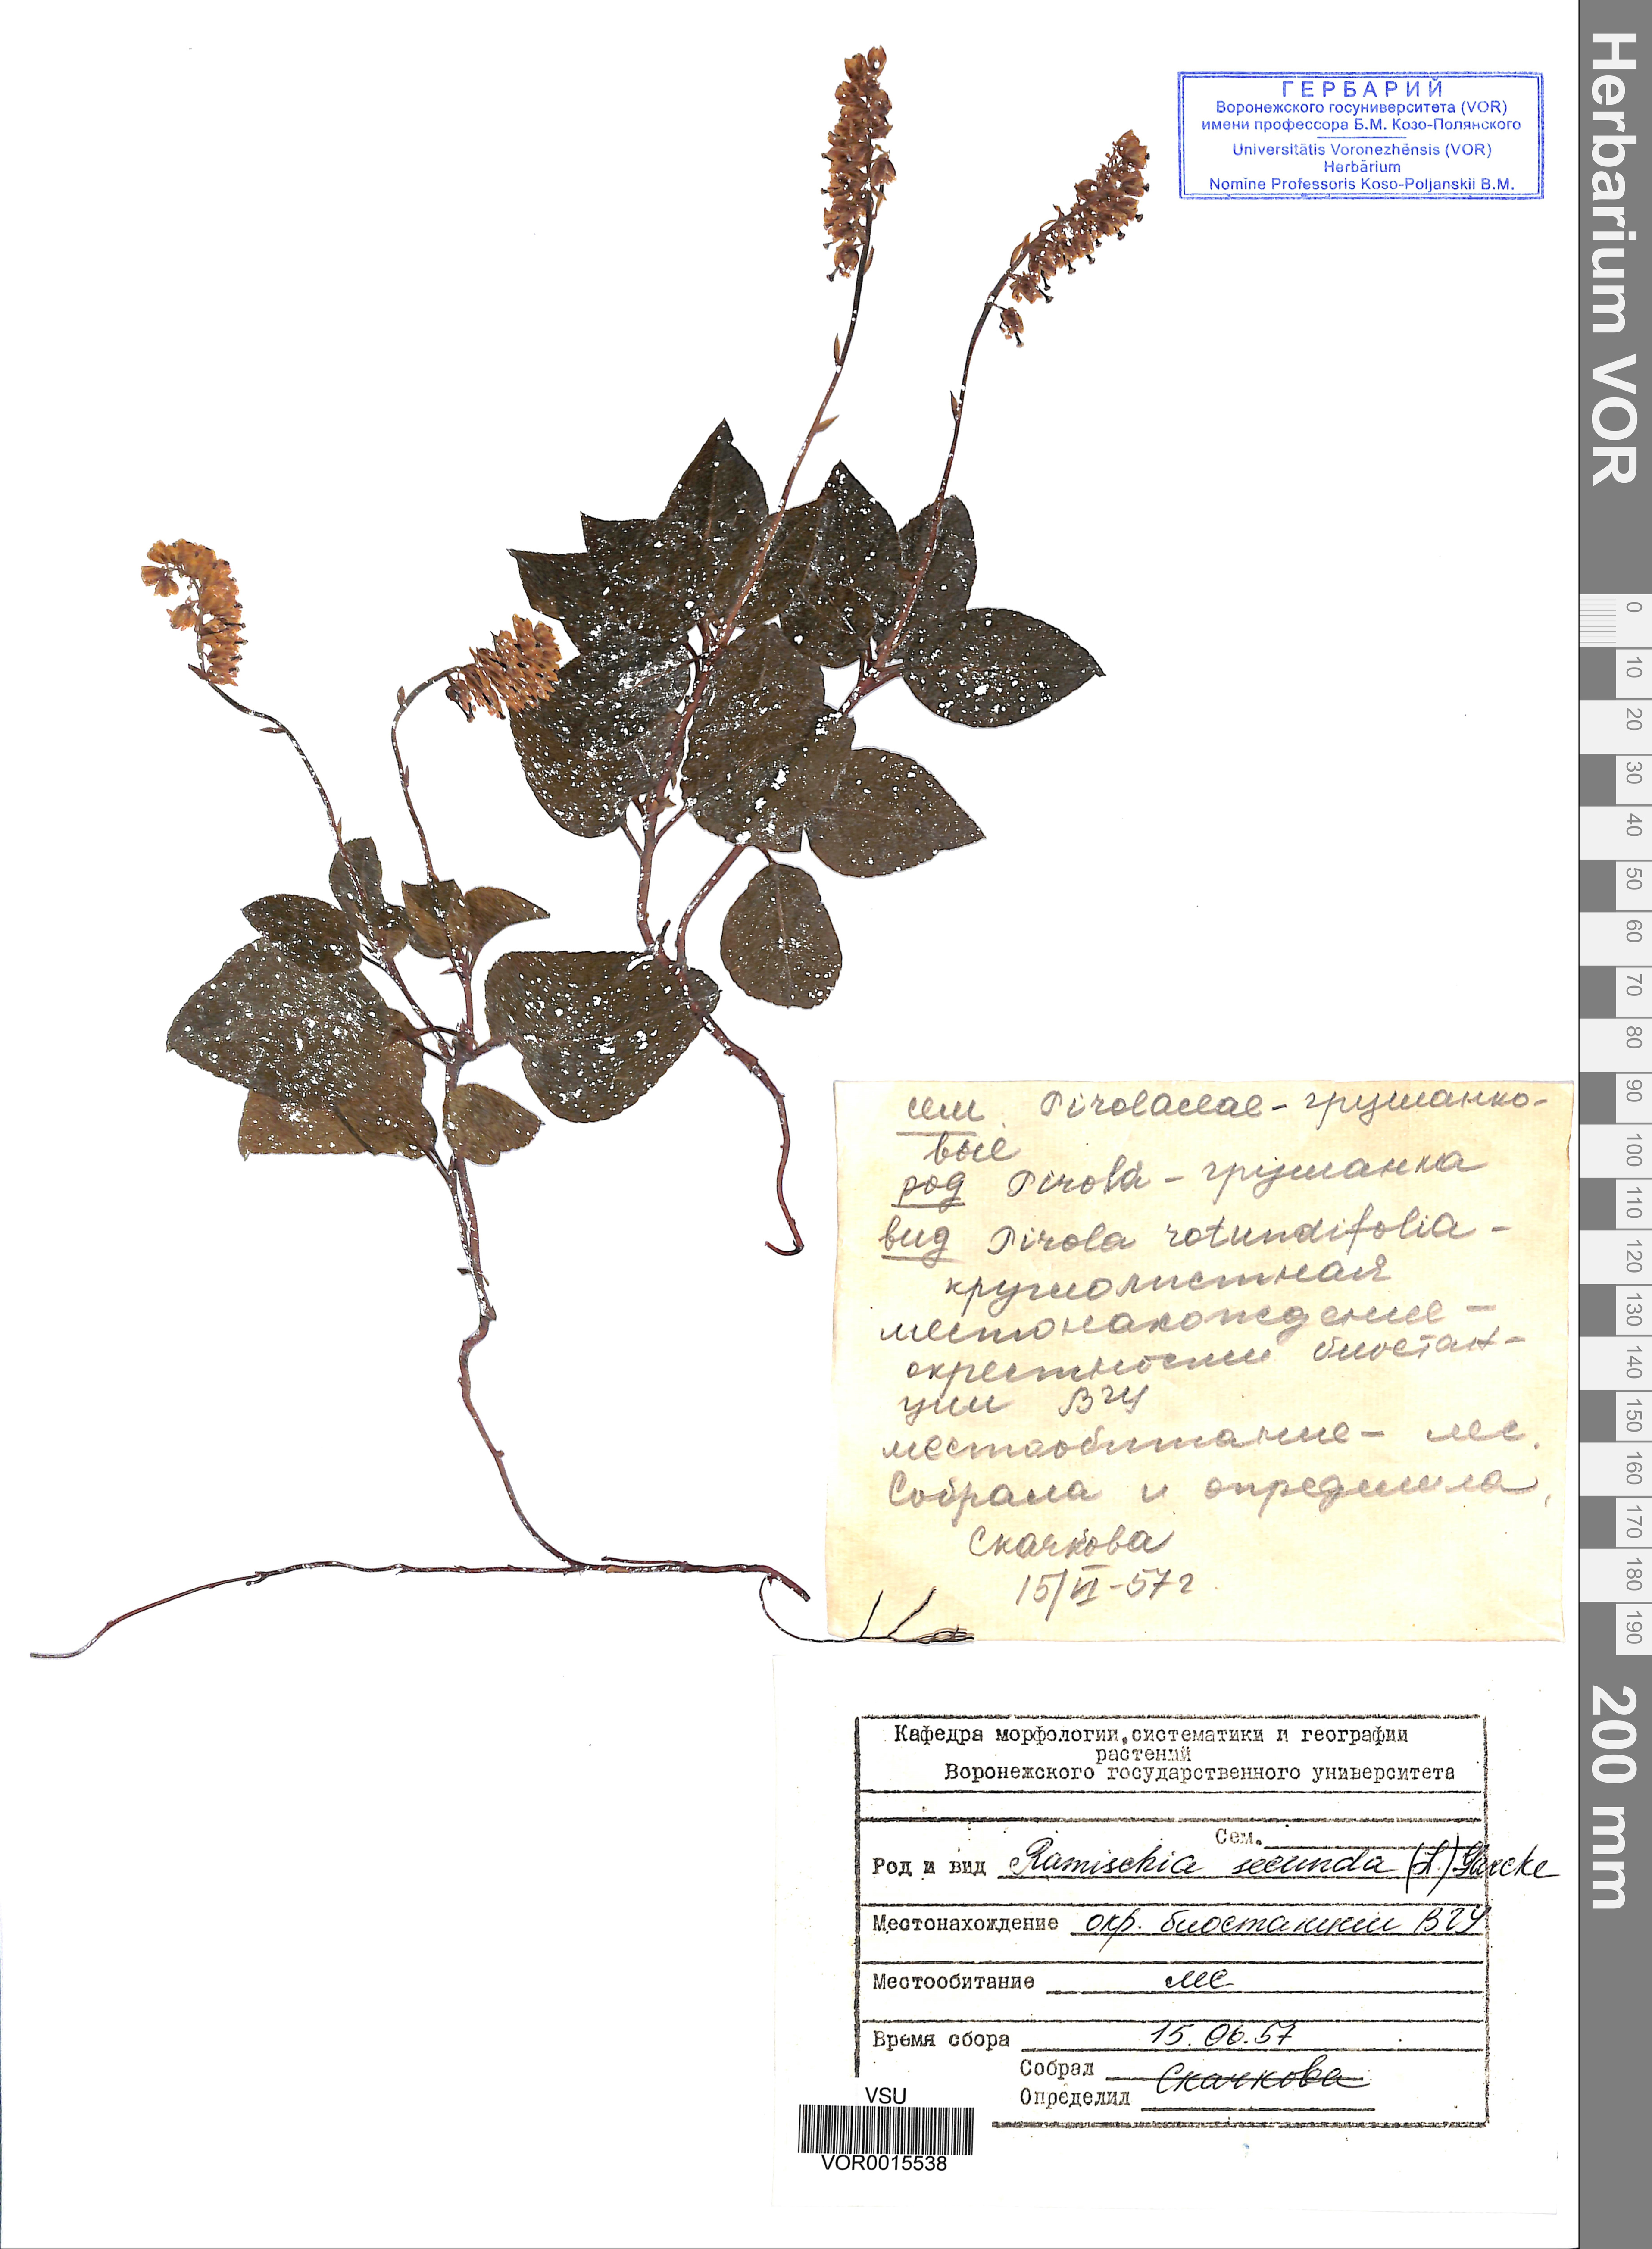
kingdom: Plantae
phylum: Tracheophyta
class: Magnoliopsida
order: Ericales
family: Ericaceae
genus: Orthilia
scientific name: Orthilia secunda
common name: One-sided orthilia
